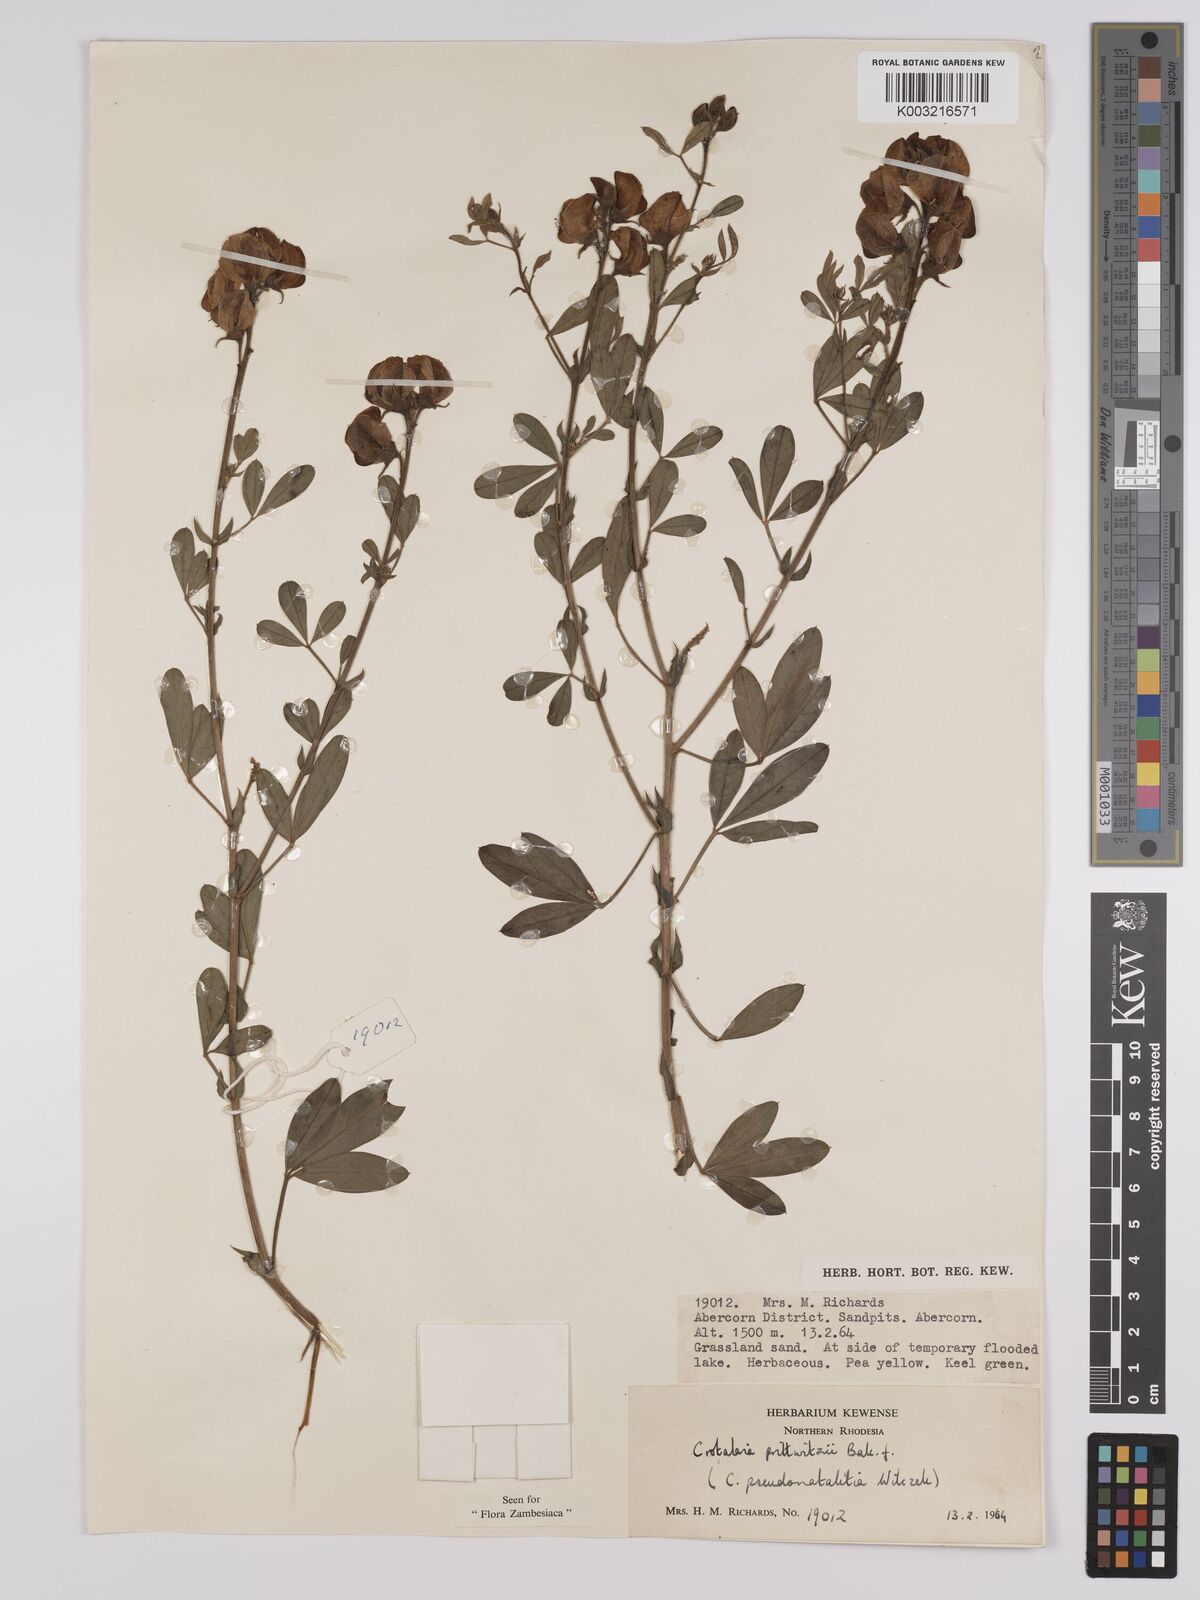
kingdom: Plantae
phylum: Tracheophyta
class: Magnoliopsida
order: Fabales
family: Fabaceae
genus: Crotalaria
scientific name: Crotalaria prittwitzii
